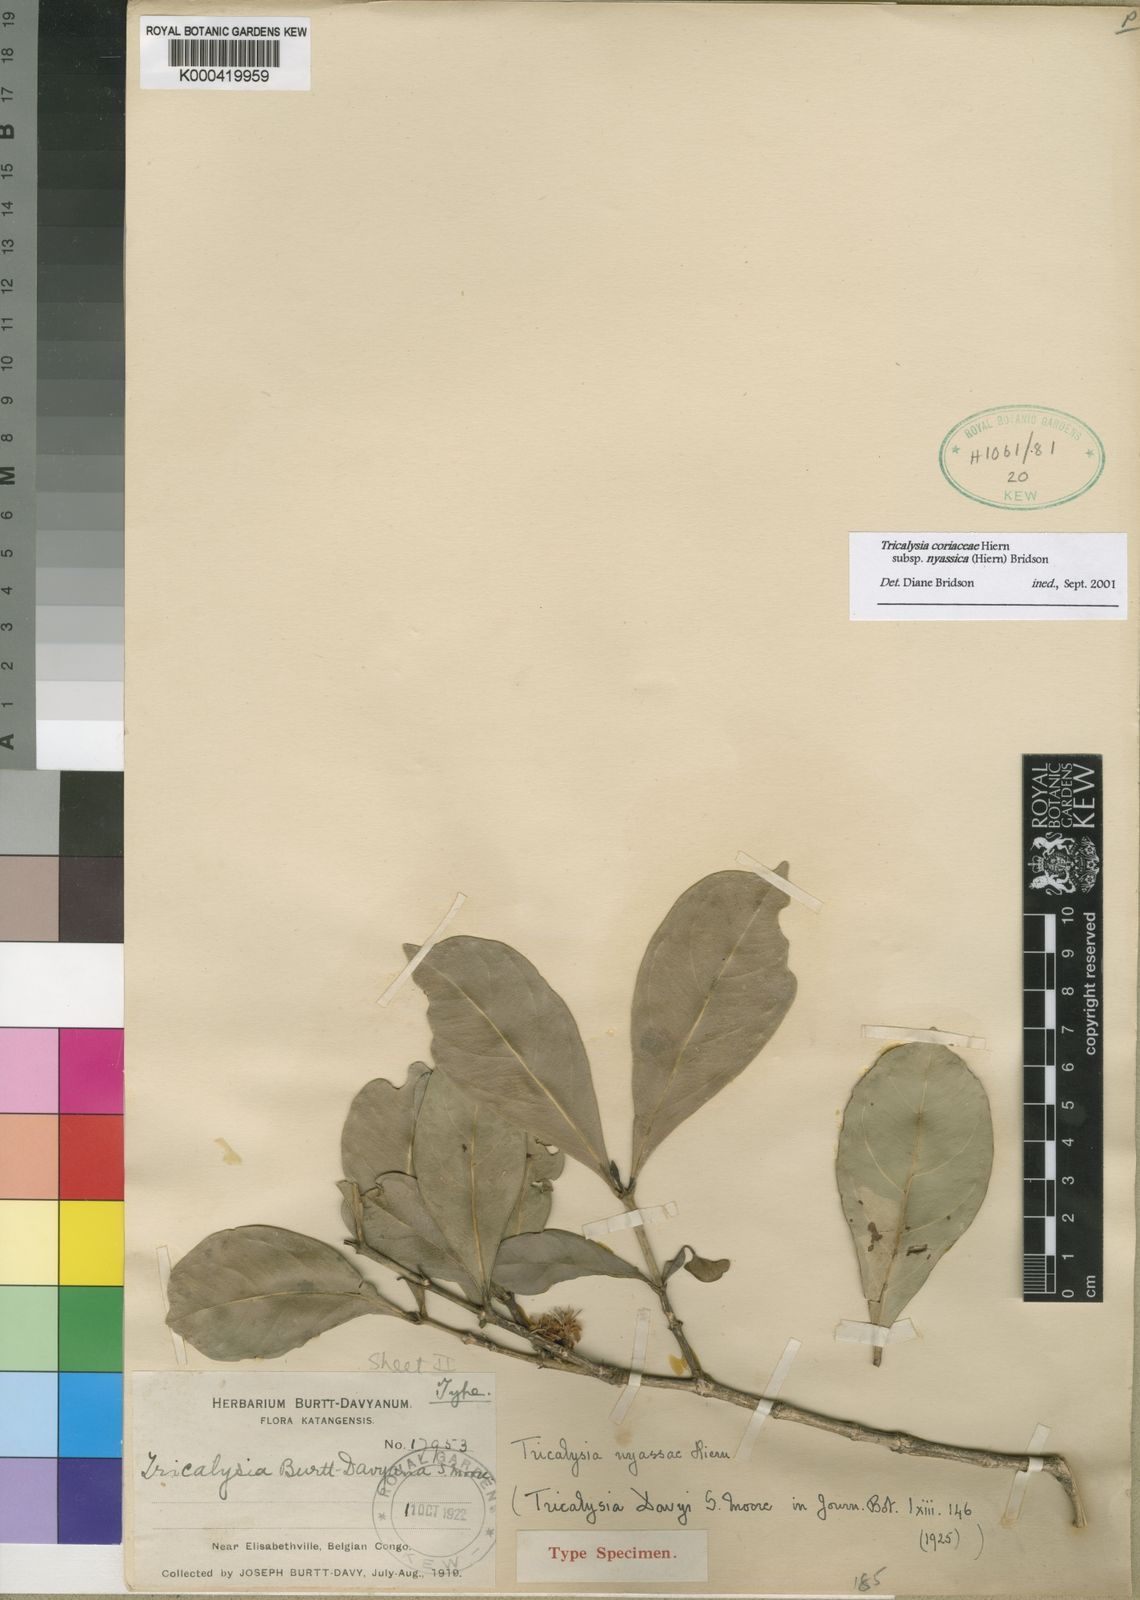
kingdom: Plantae
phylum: Tracheophyta
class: Magnoliopsida
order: Gentianales
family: Rubiaceae
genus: Tricalysia
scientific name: Tricalysia coriacea
